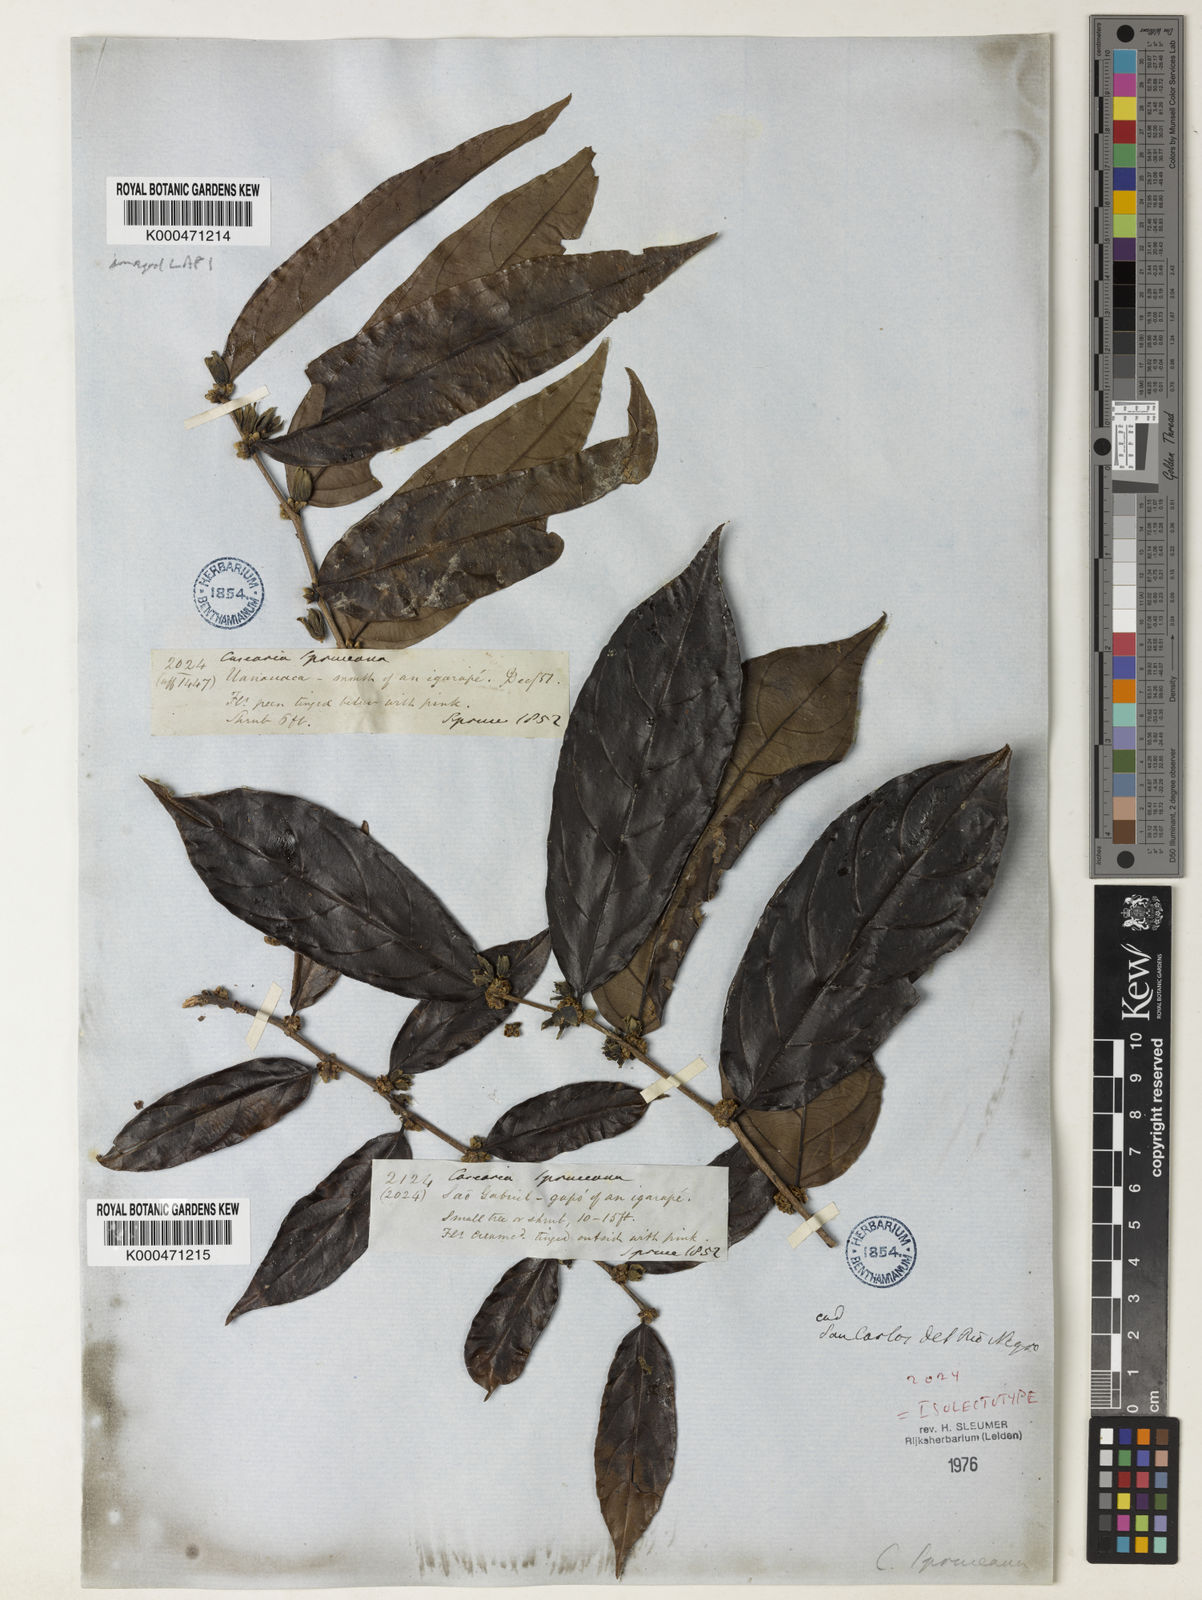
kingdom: Plantae
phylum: Tracheophyta
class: Magnoliopsida
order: Malpighiales
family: Salicaceae
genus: Piparea
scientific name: Piparea spruceana
